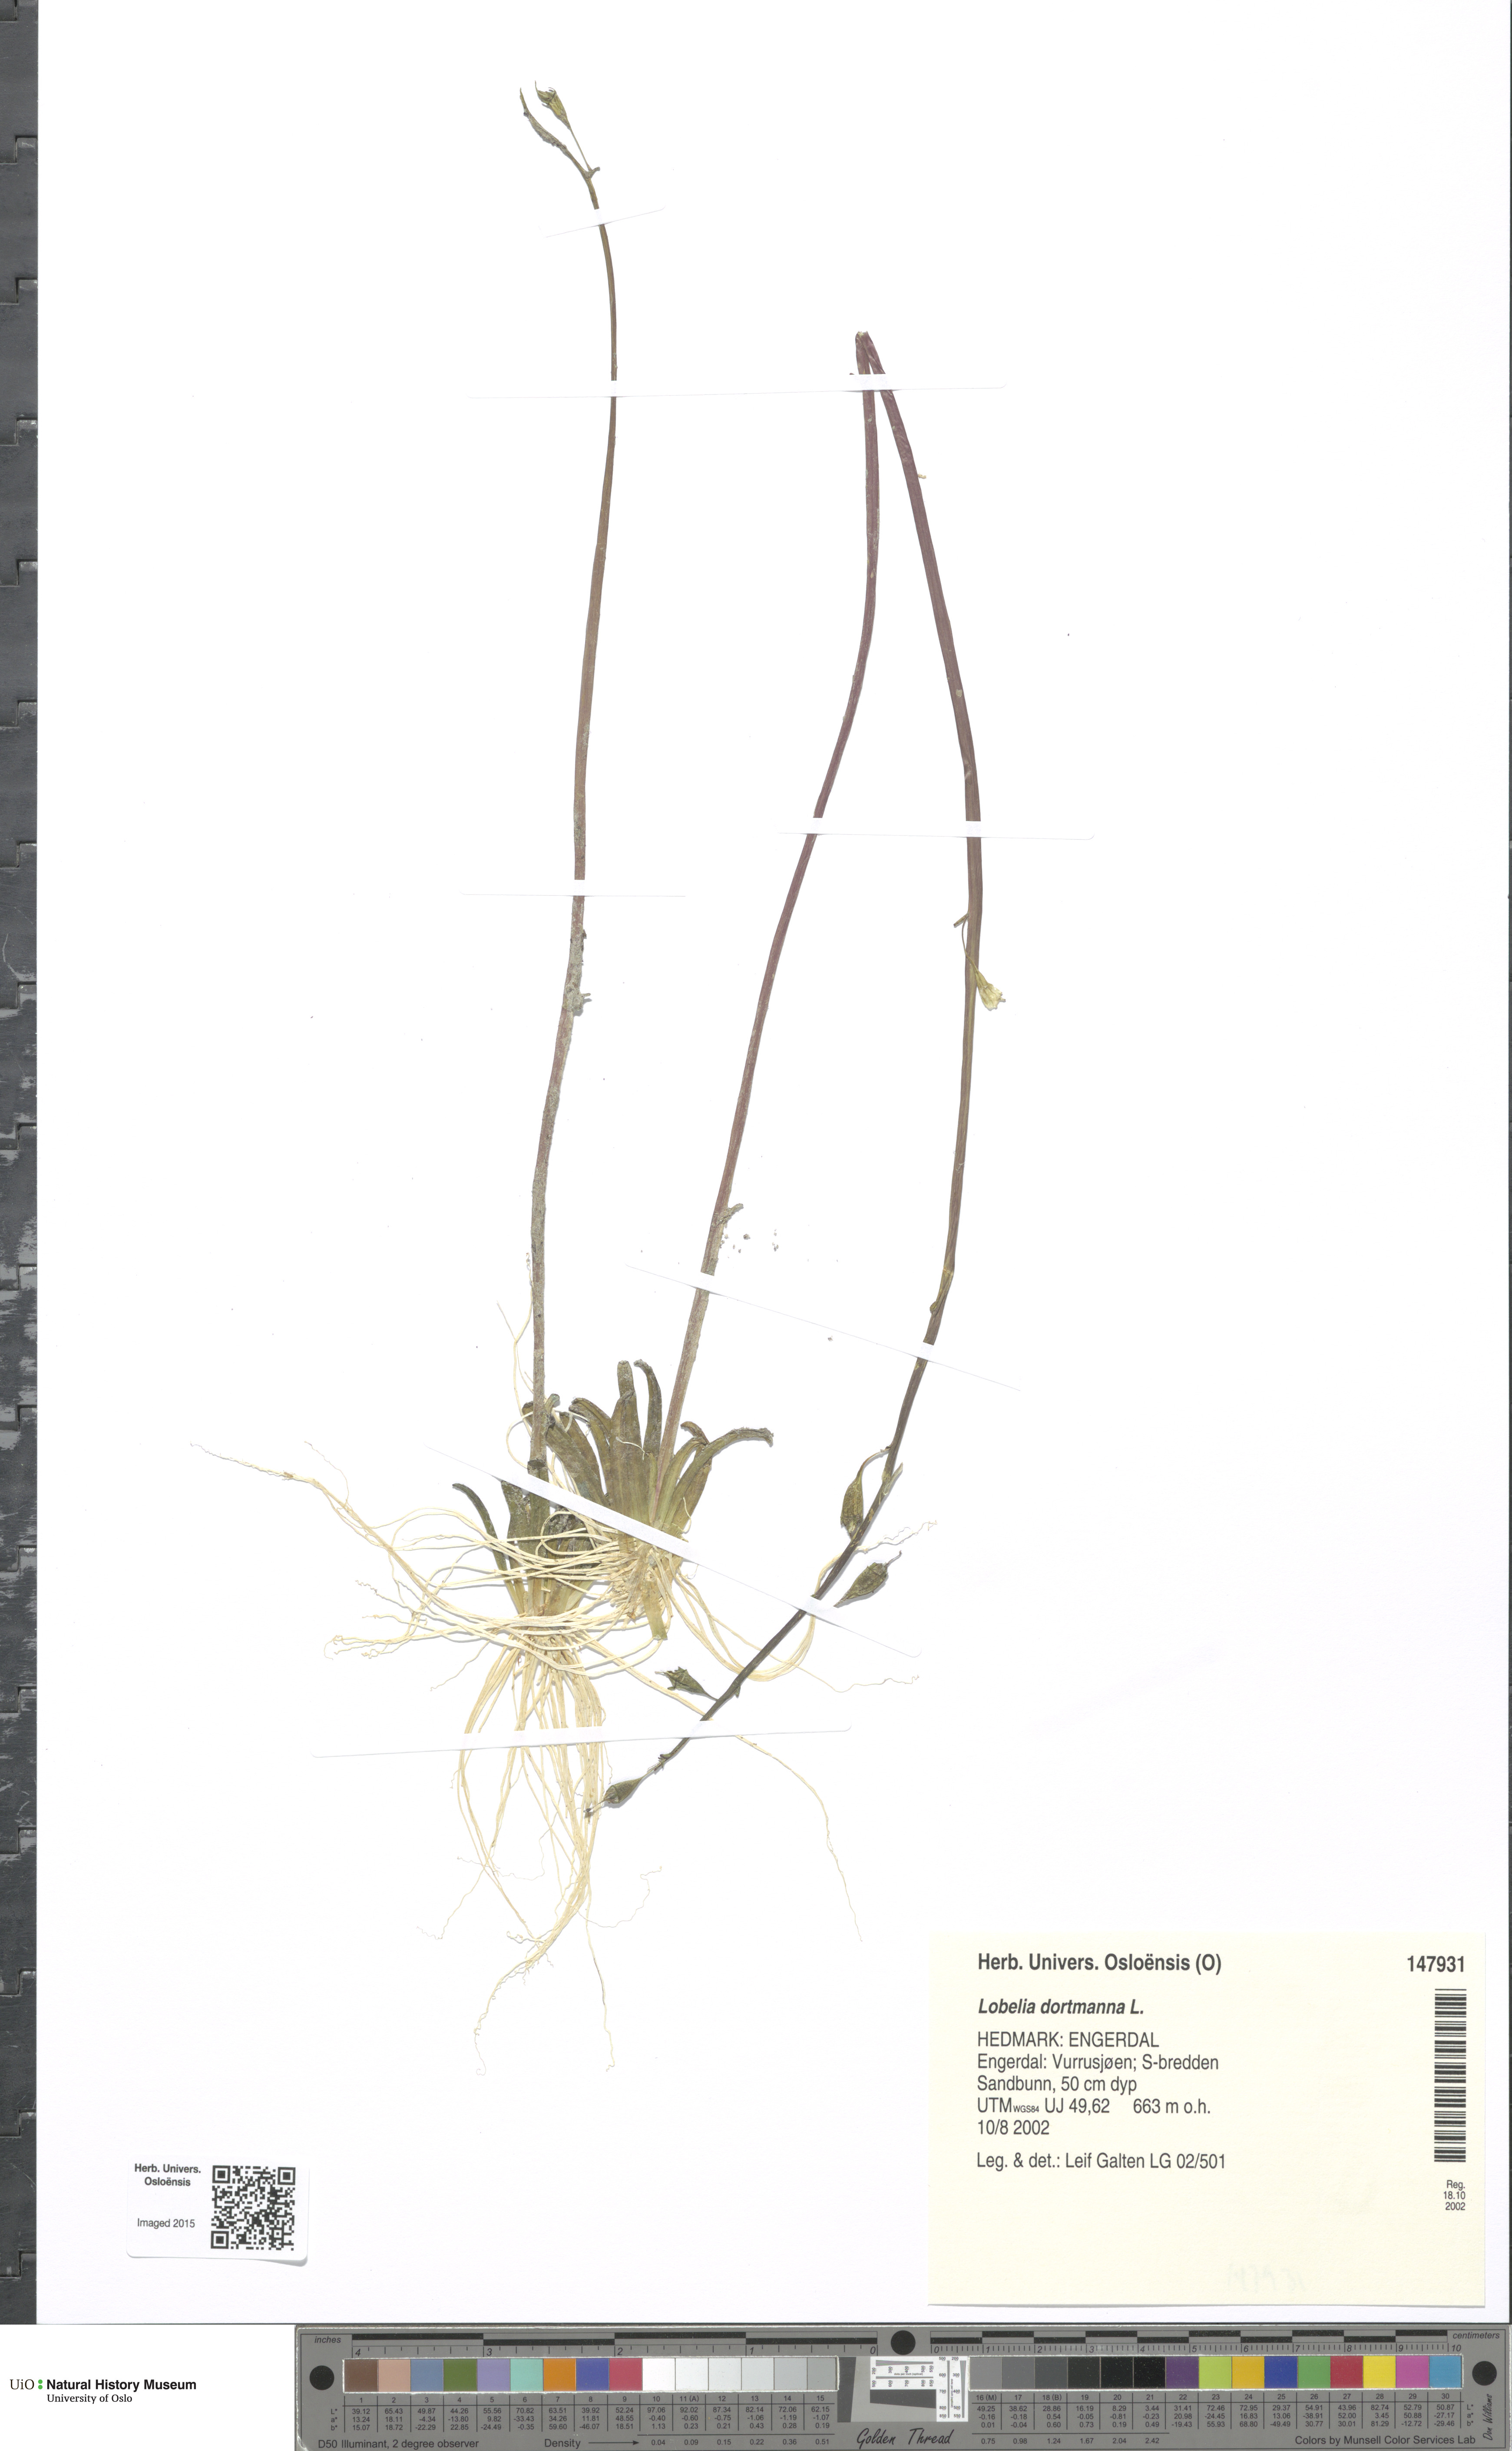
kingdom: Plantae
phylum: Tracheophyta
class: Magnoliopsida
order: Asterales
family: Campanulaceae
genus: Lobelia
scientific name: Lobelia dortmanna
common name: Water lobelia
